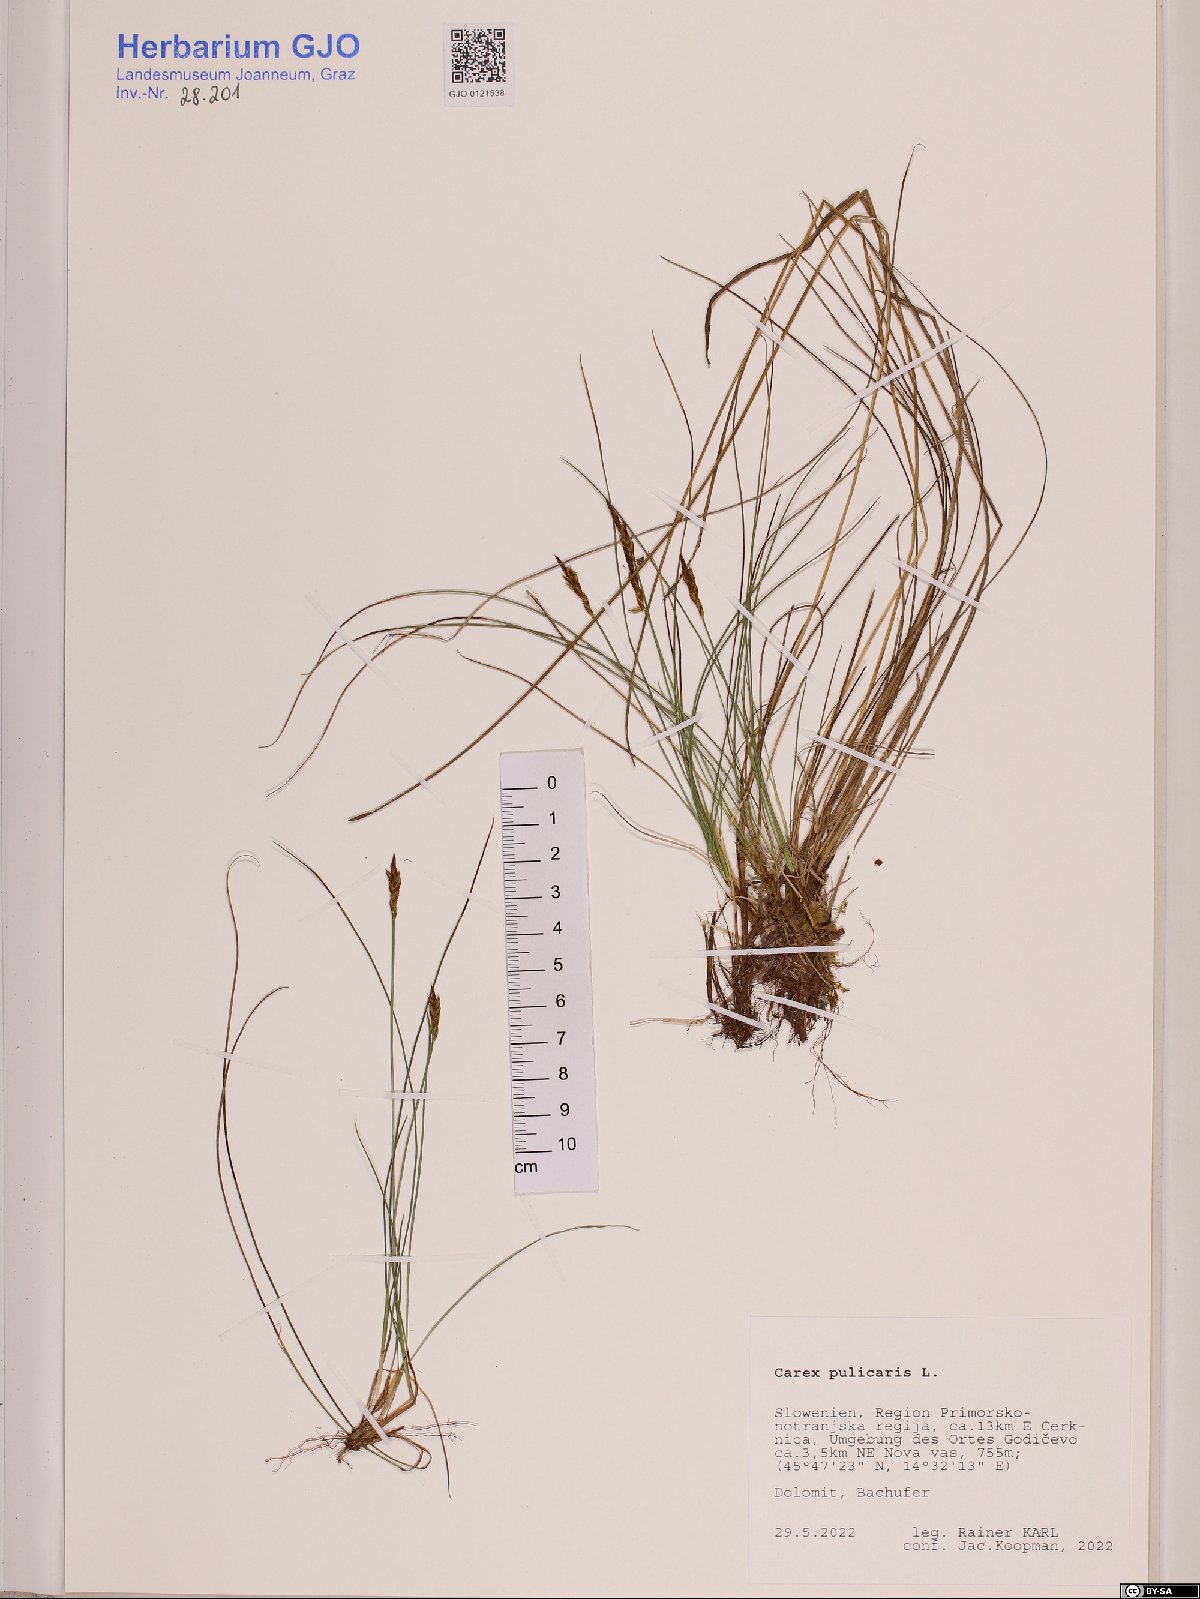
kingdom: Plantae
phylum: Tracheophyta
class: Liliopsida
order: Poales
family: Cyperaceae
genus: Carex
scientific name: Carex pulicaris
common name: Flea sedge
